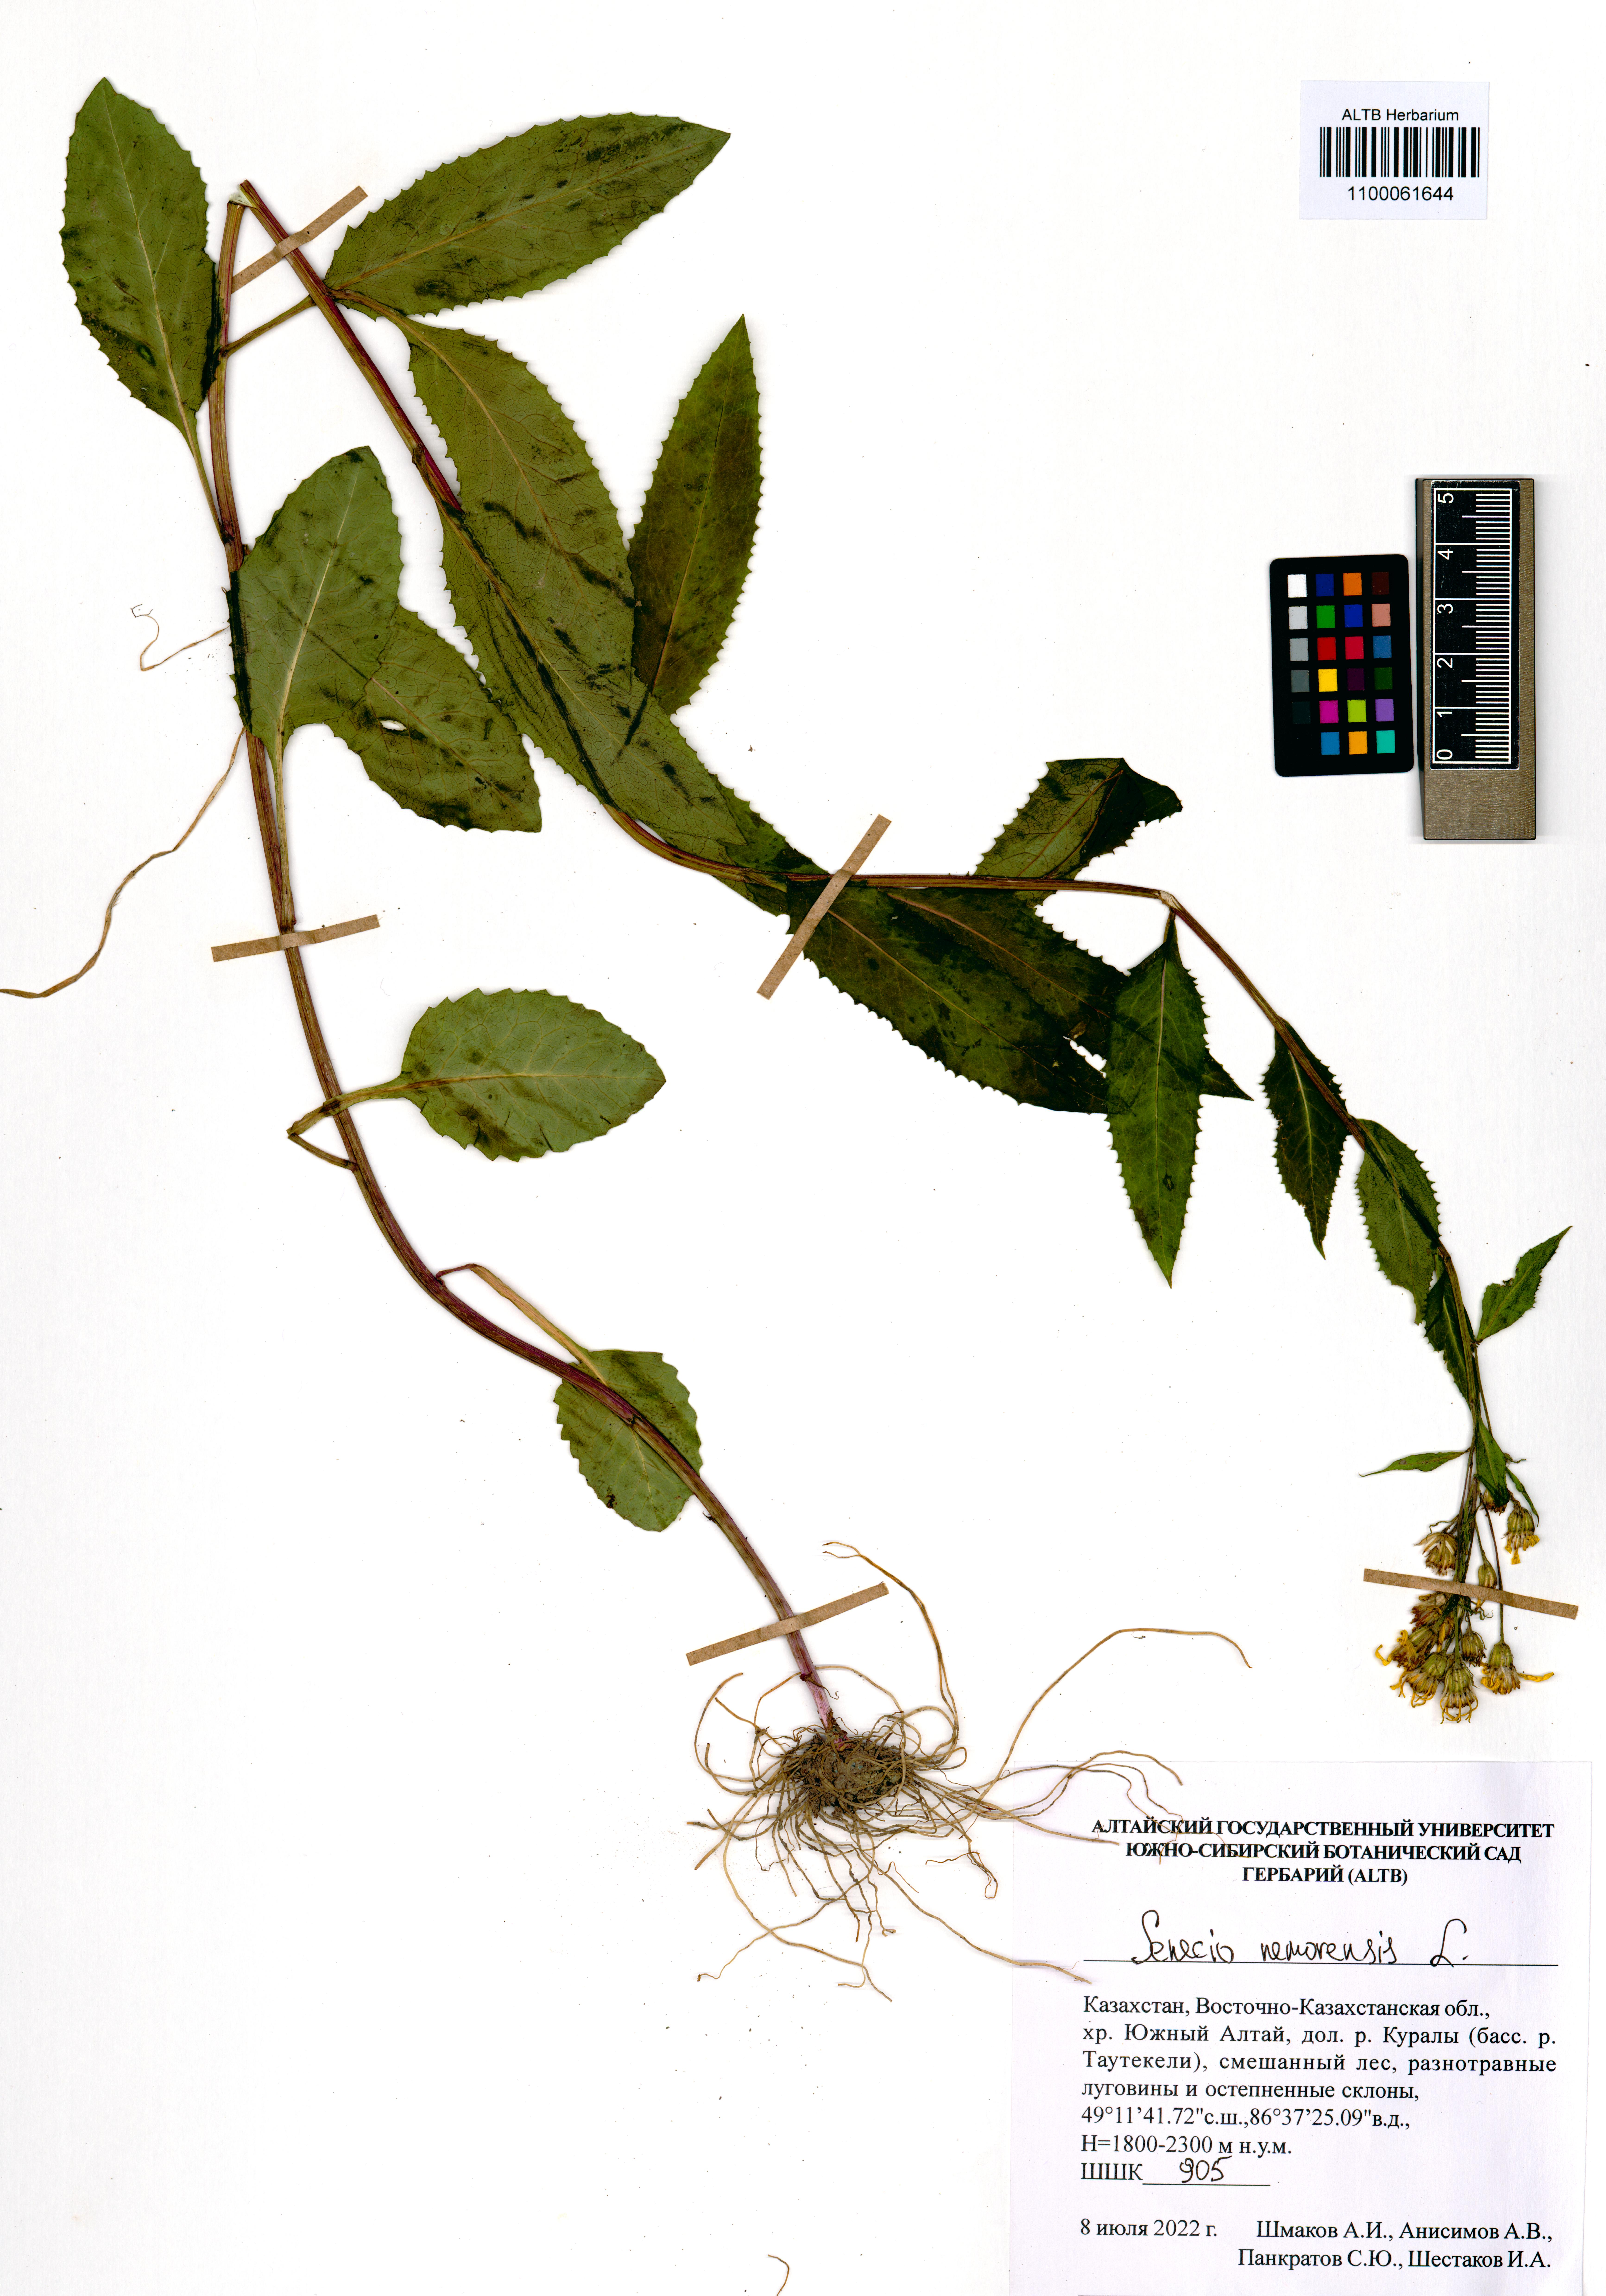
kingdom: Plantae
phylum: Tracheophyta
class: Magnoliopsida
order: Asterales
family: Asteraceae
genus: Senecio
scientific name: Senecio nemorensis
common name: Alpine ragwort
